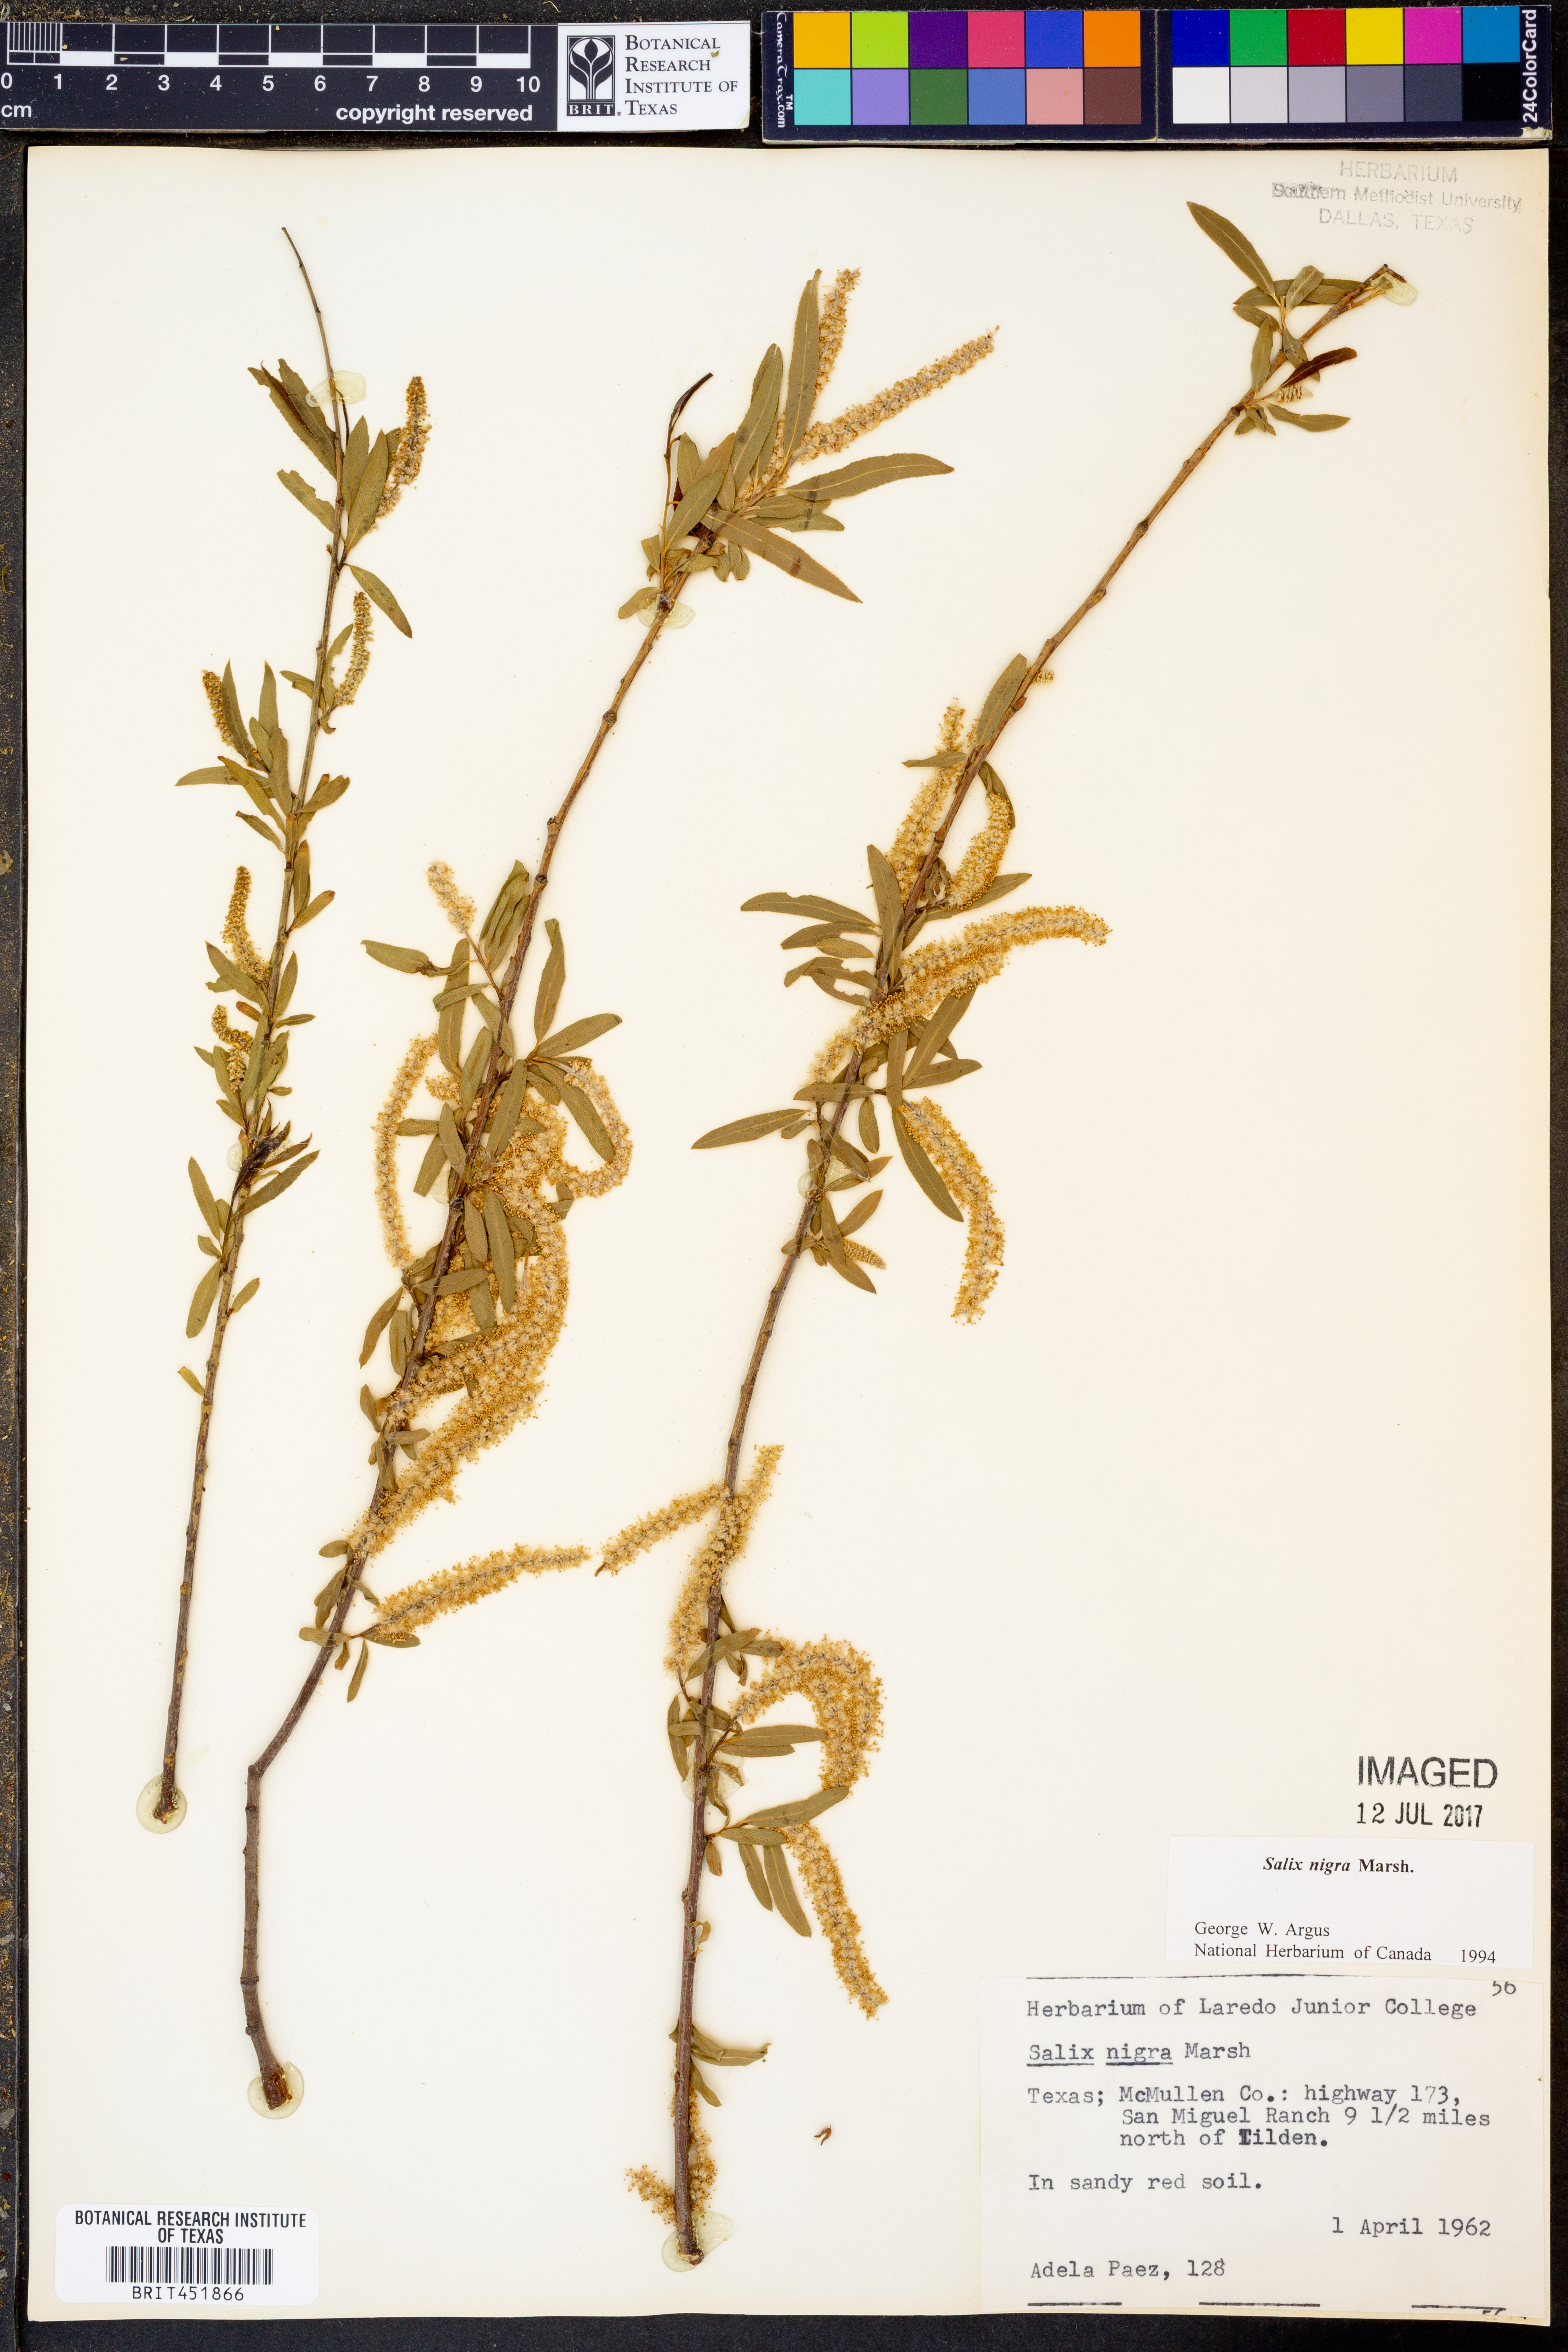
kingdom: Plantae
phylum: Tracheophyta
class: Magnoliopsida
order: Malpighiales
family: Salicaceae
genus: Salix
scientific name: Salix nigra
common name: Black willow
